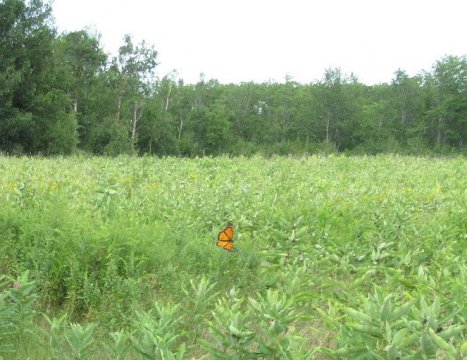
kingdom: Animalia
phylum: Arthropoda
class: Insecta
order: Lepidoptera
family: Nymphalidae
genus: Danaus
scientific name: Danaus plexippus
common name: Monarch
